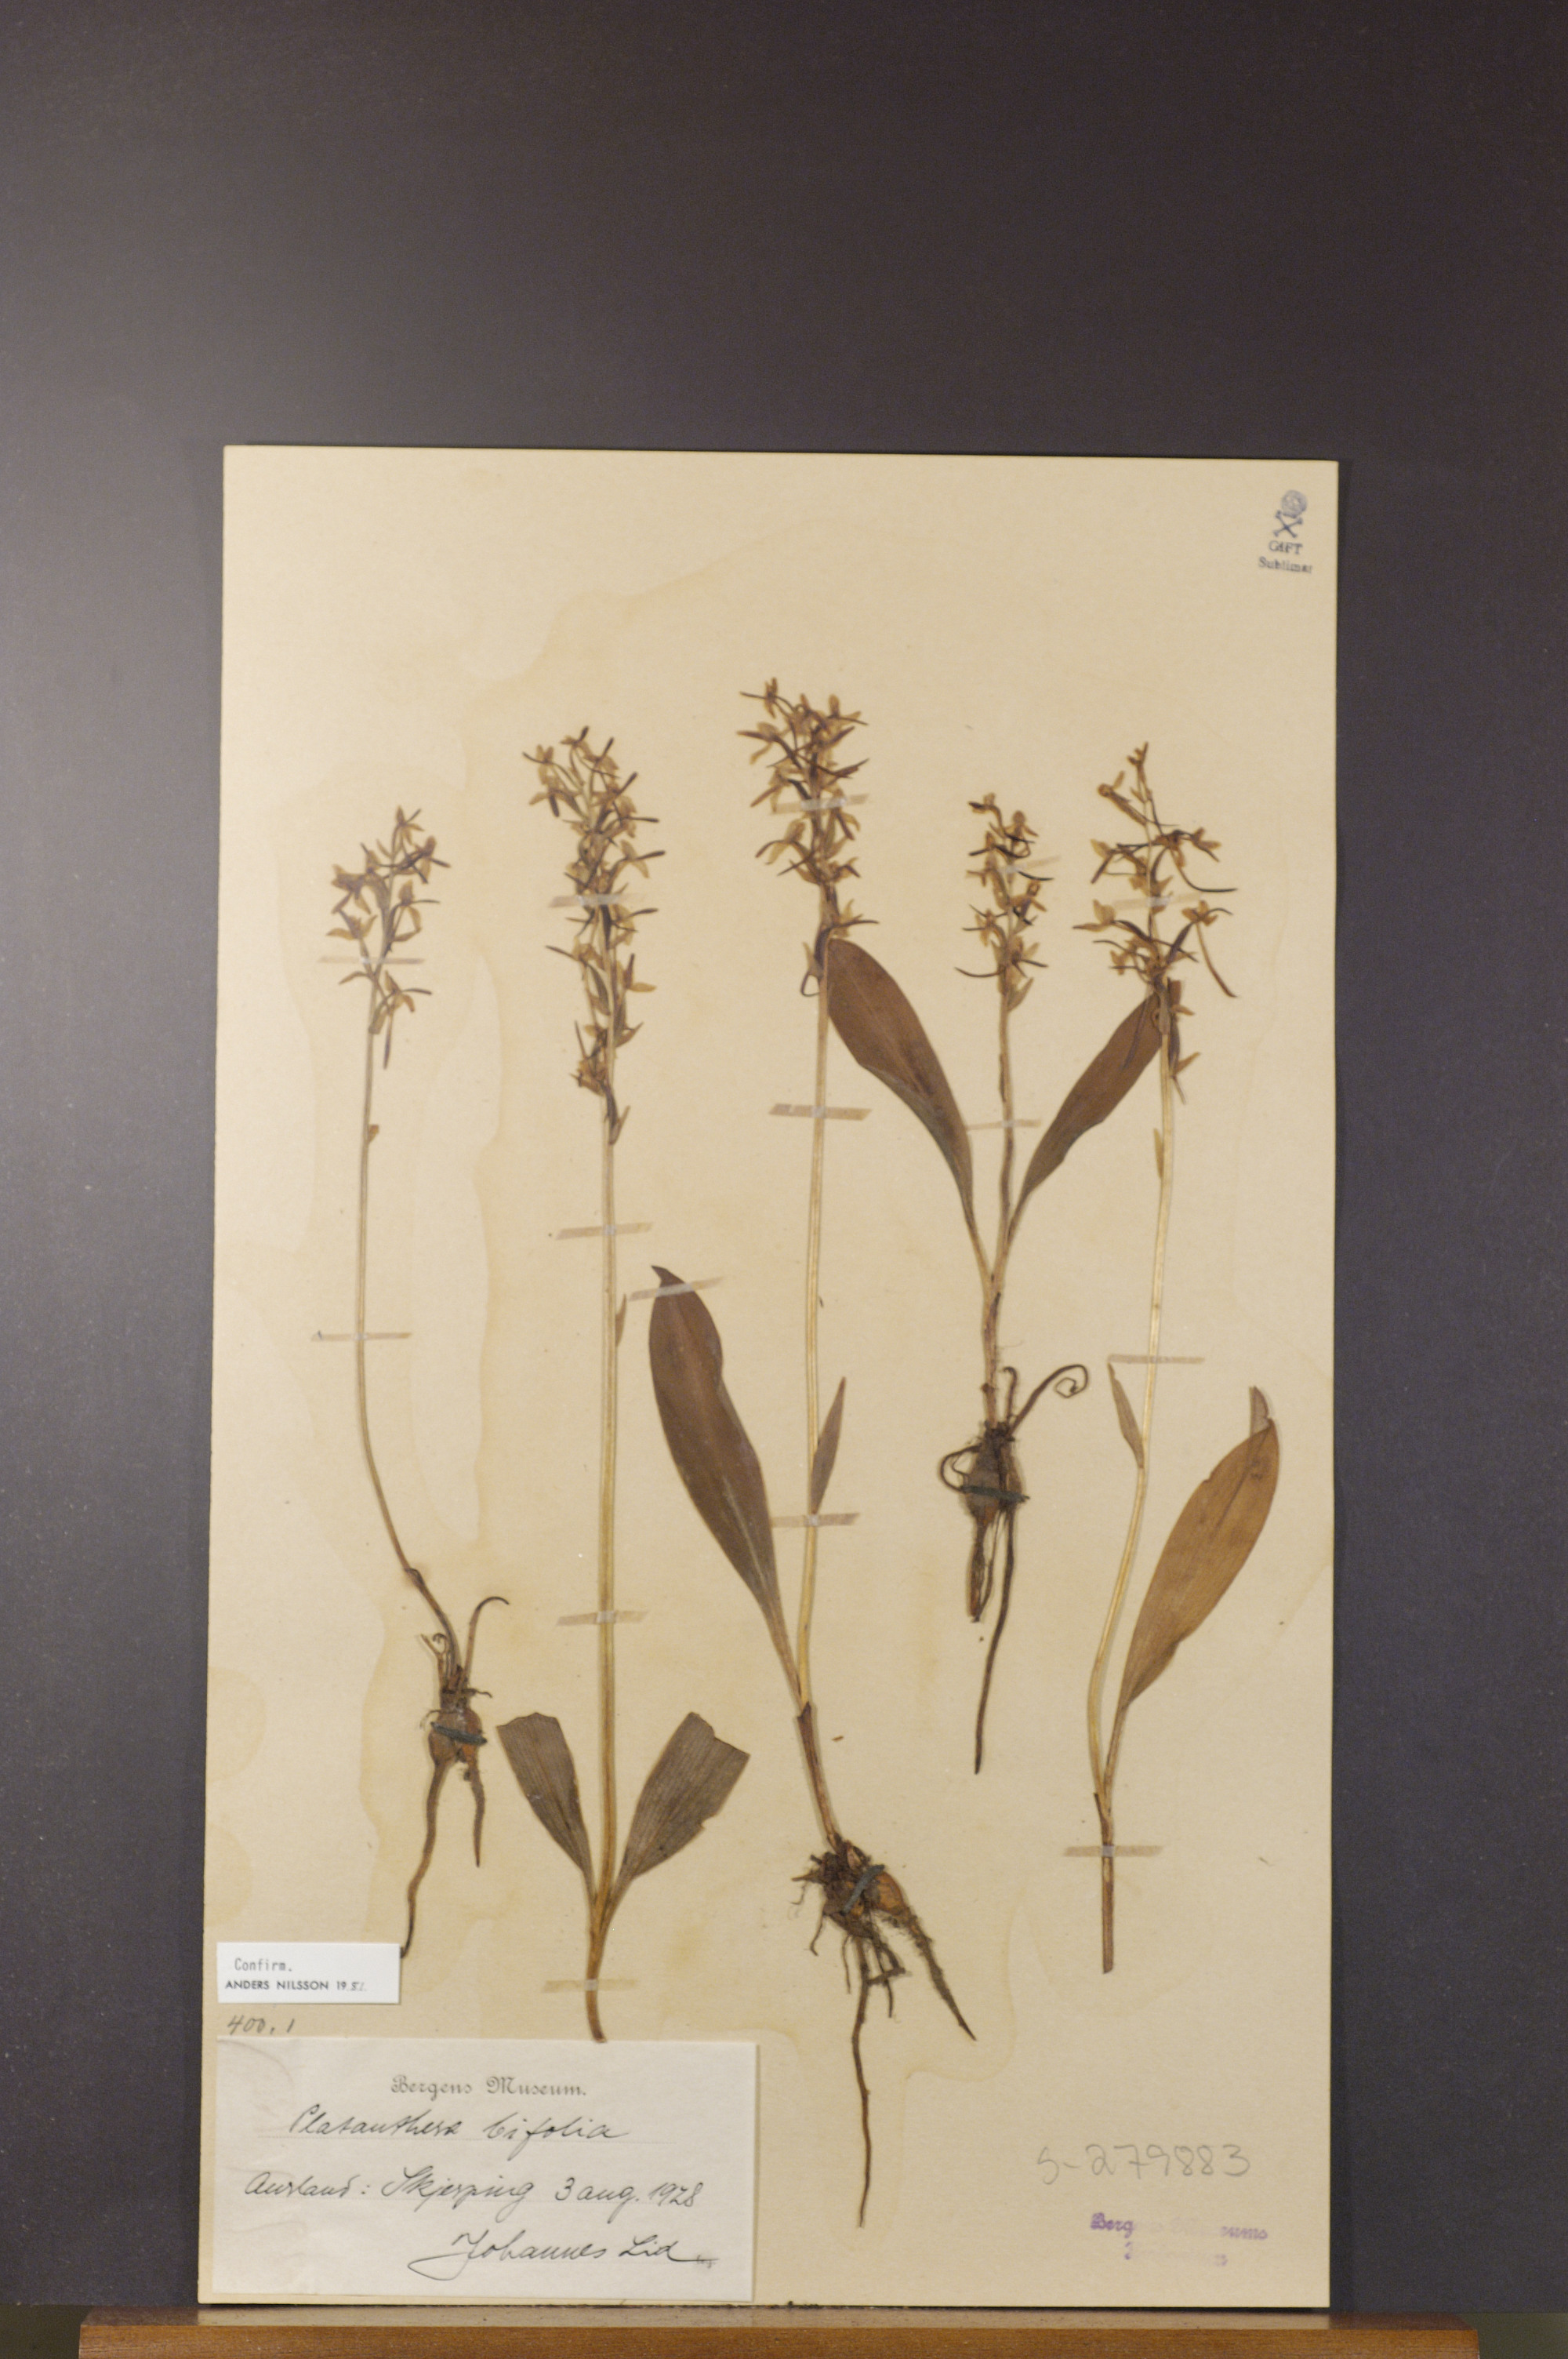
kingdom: Plantae
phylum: Tracheophyta
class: Liliopsida
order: Asparagales
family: Orchidaceae
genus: Platanthera
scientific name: Platanthera bifolia
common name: Lesser butterfly-orchid
